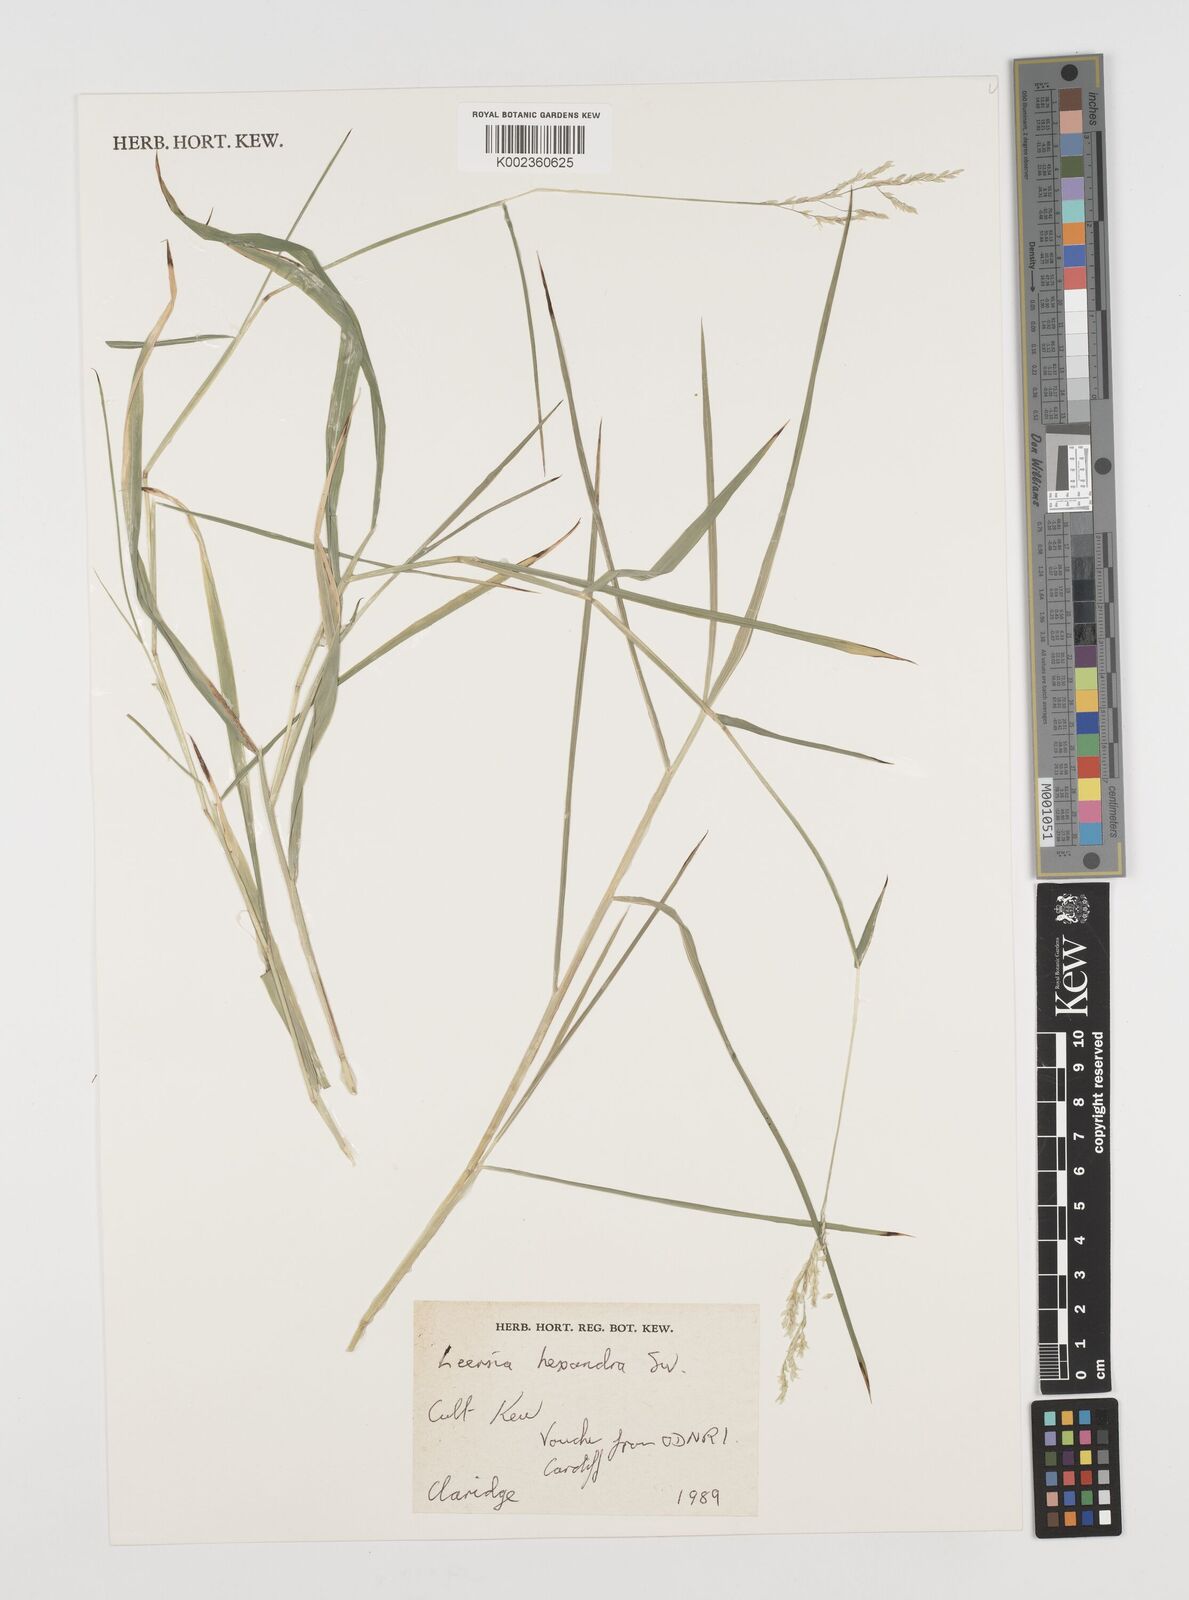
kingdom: Plantae
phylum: Tracheophyta
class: Liliopsida
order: Poales
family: Poaceae
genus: Leersia
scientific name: Leersia hexandra
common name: Southern cut grass
